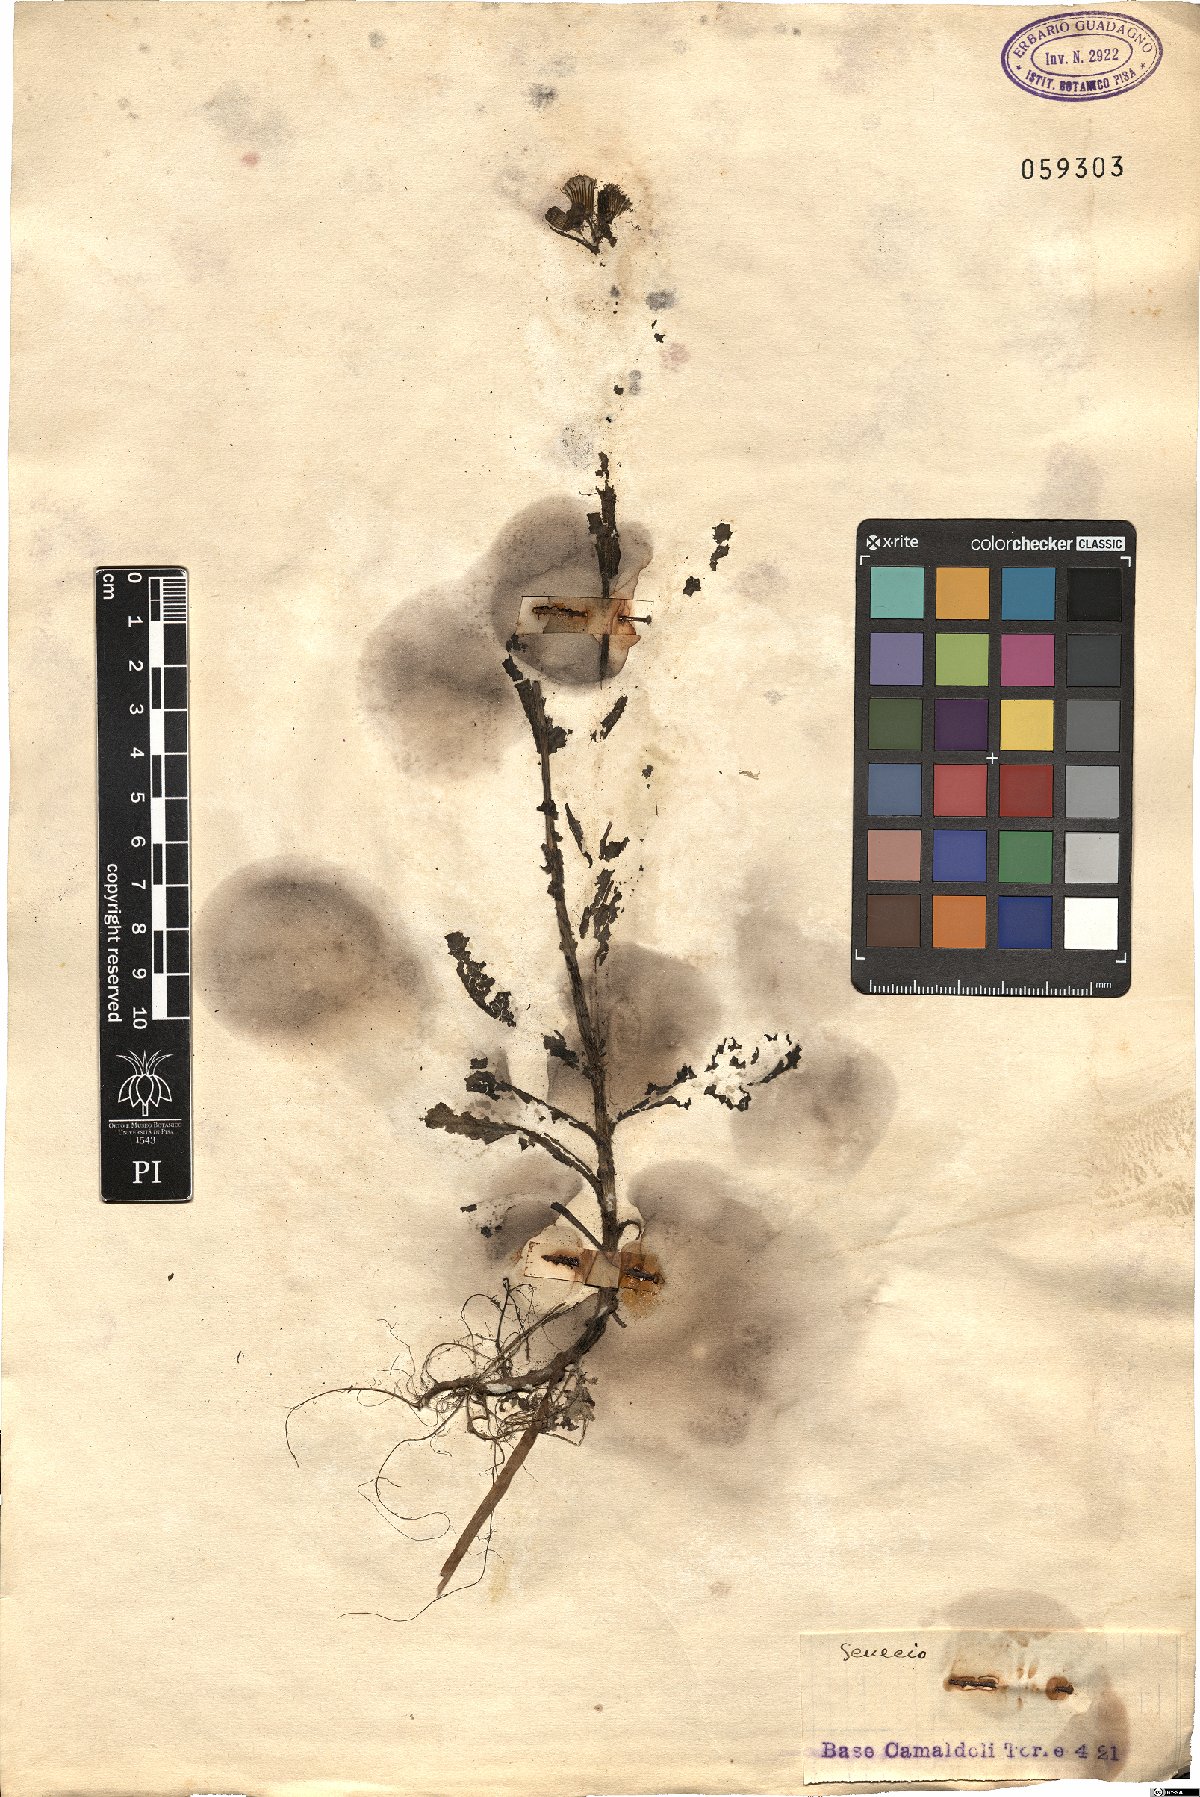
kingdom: Plantae
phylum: Tracheophyta
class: Magnoliopsida
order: Asterales
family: Asteraceae
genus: Senecio
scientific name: Senecio
